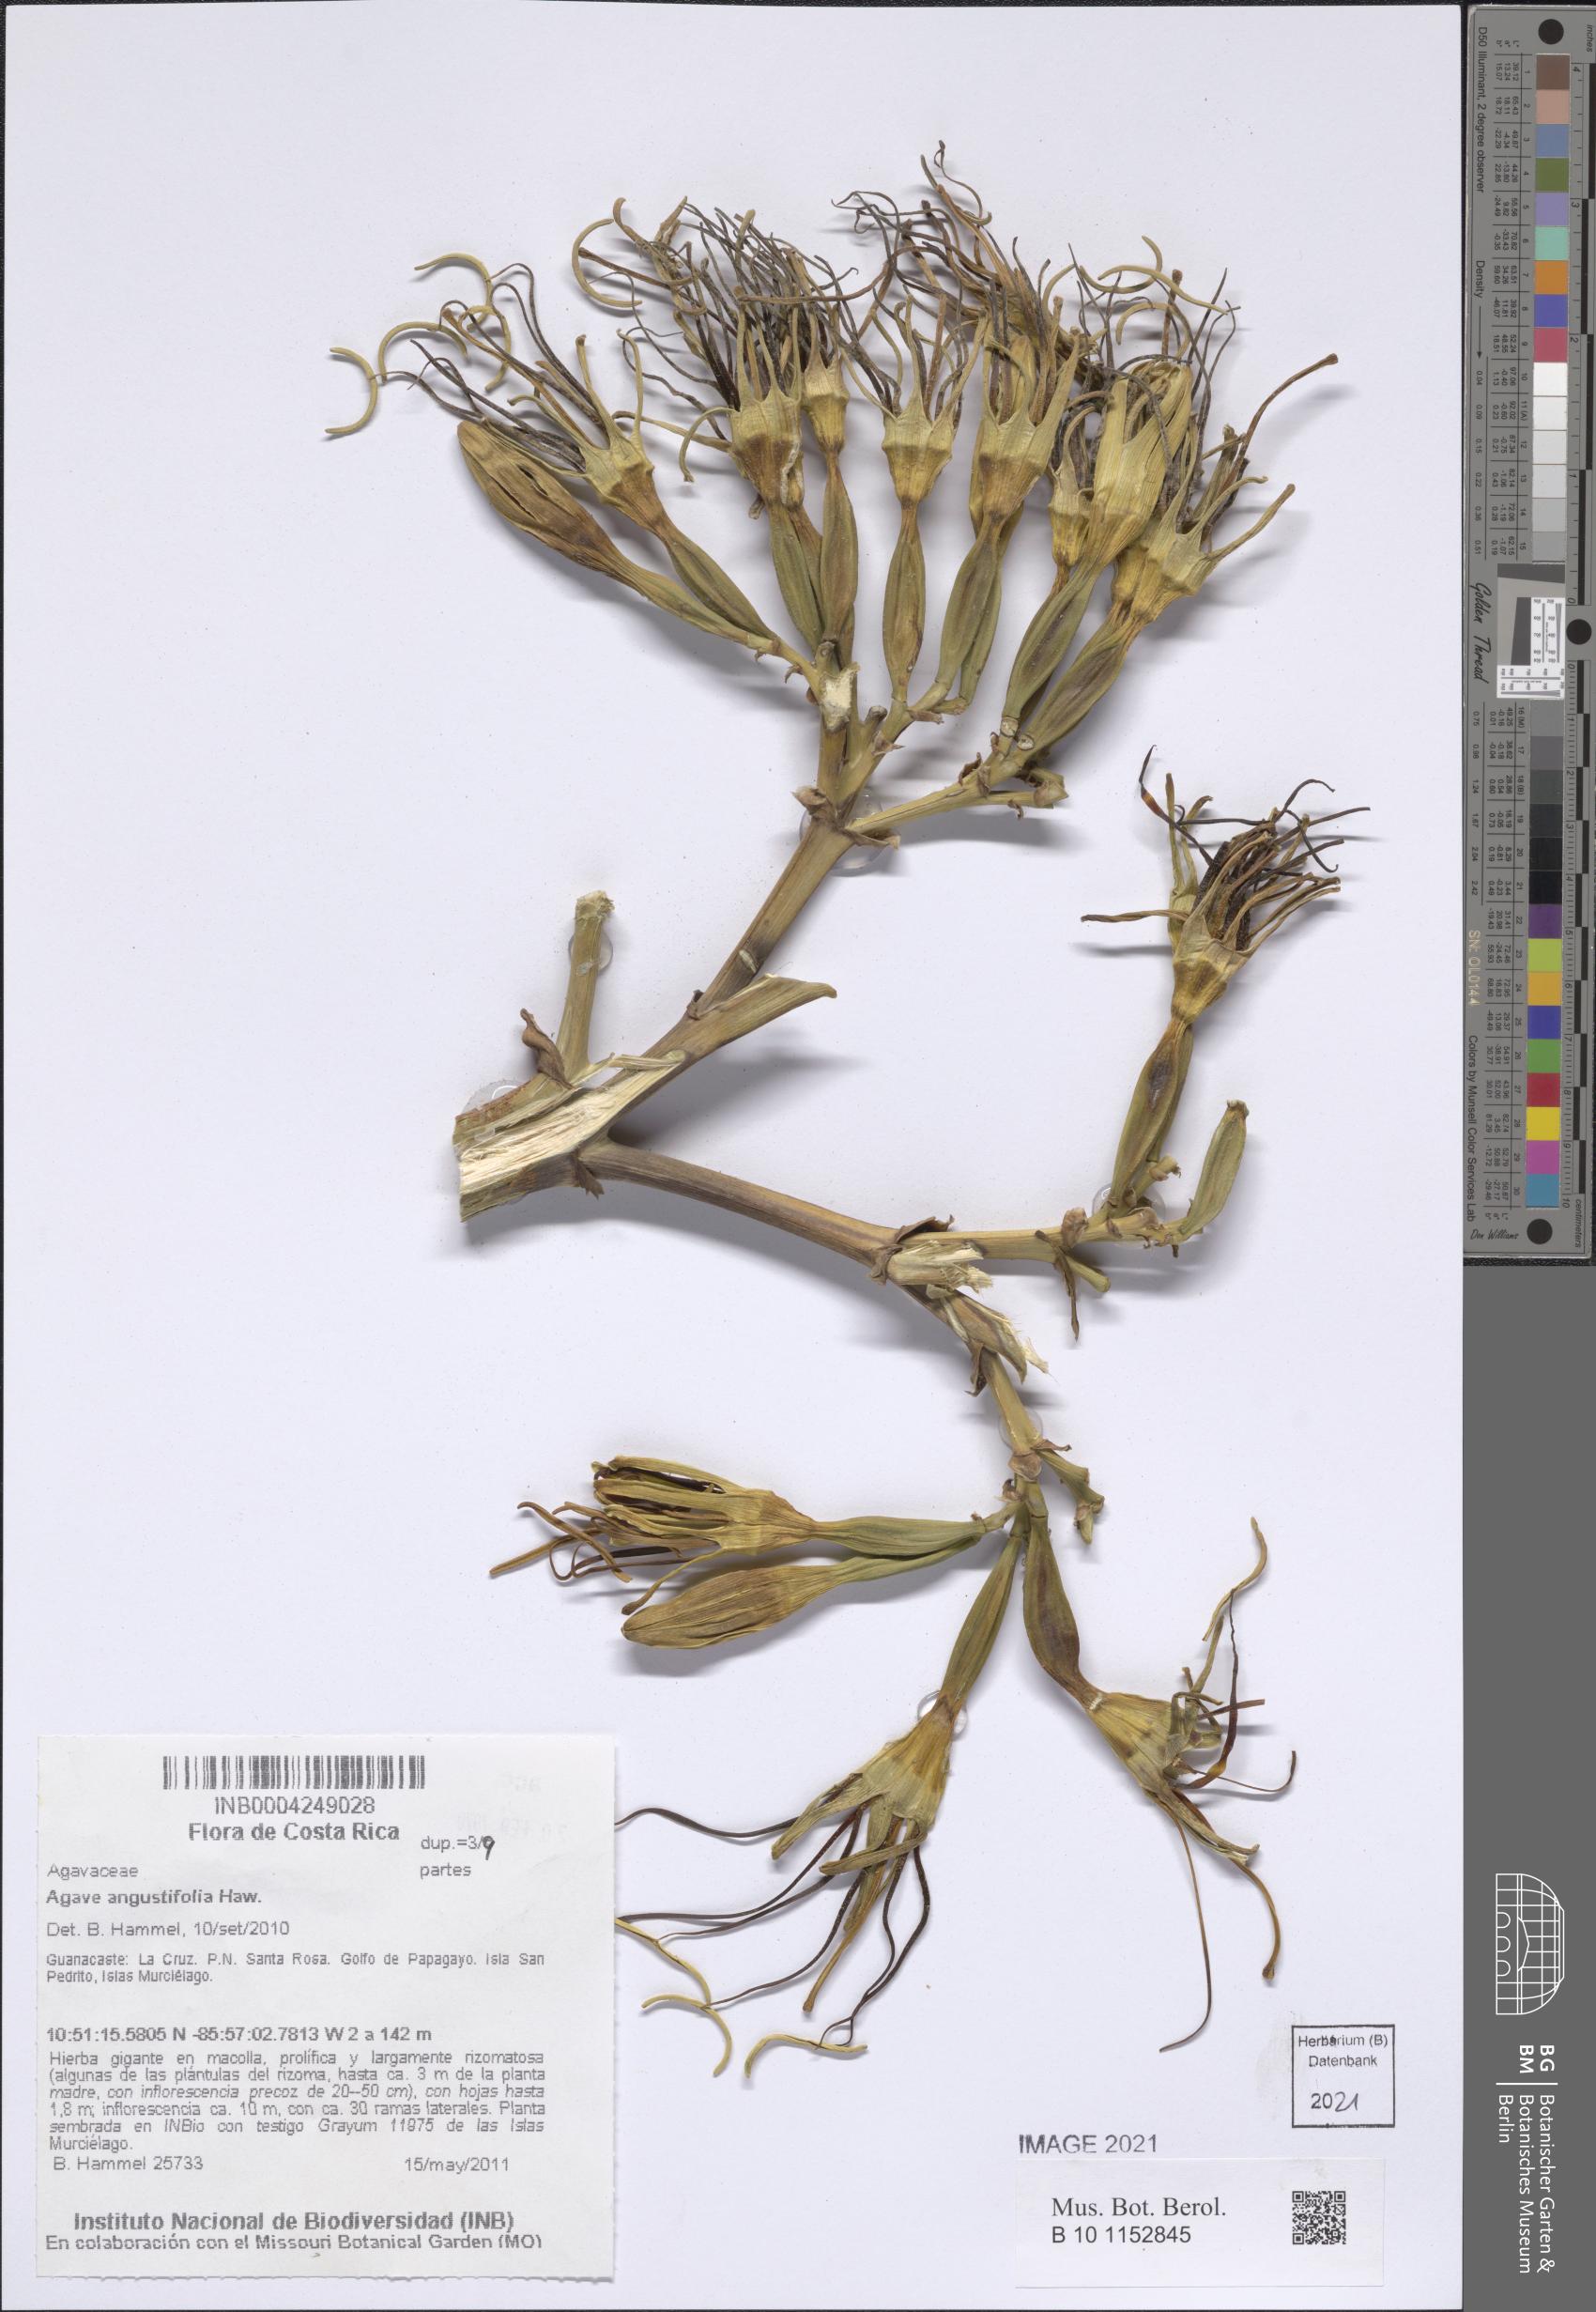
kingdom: Plantae
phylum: Tracheophyta
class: Liliopsida
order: Asparagales
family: Asparagaceae
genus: Agave
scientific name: Agave angustifolia
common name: Mescal agave
